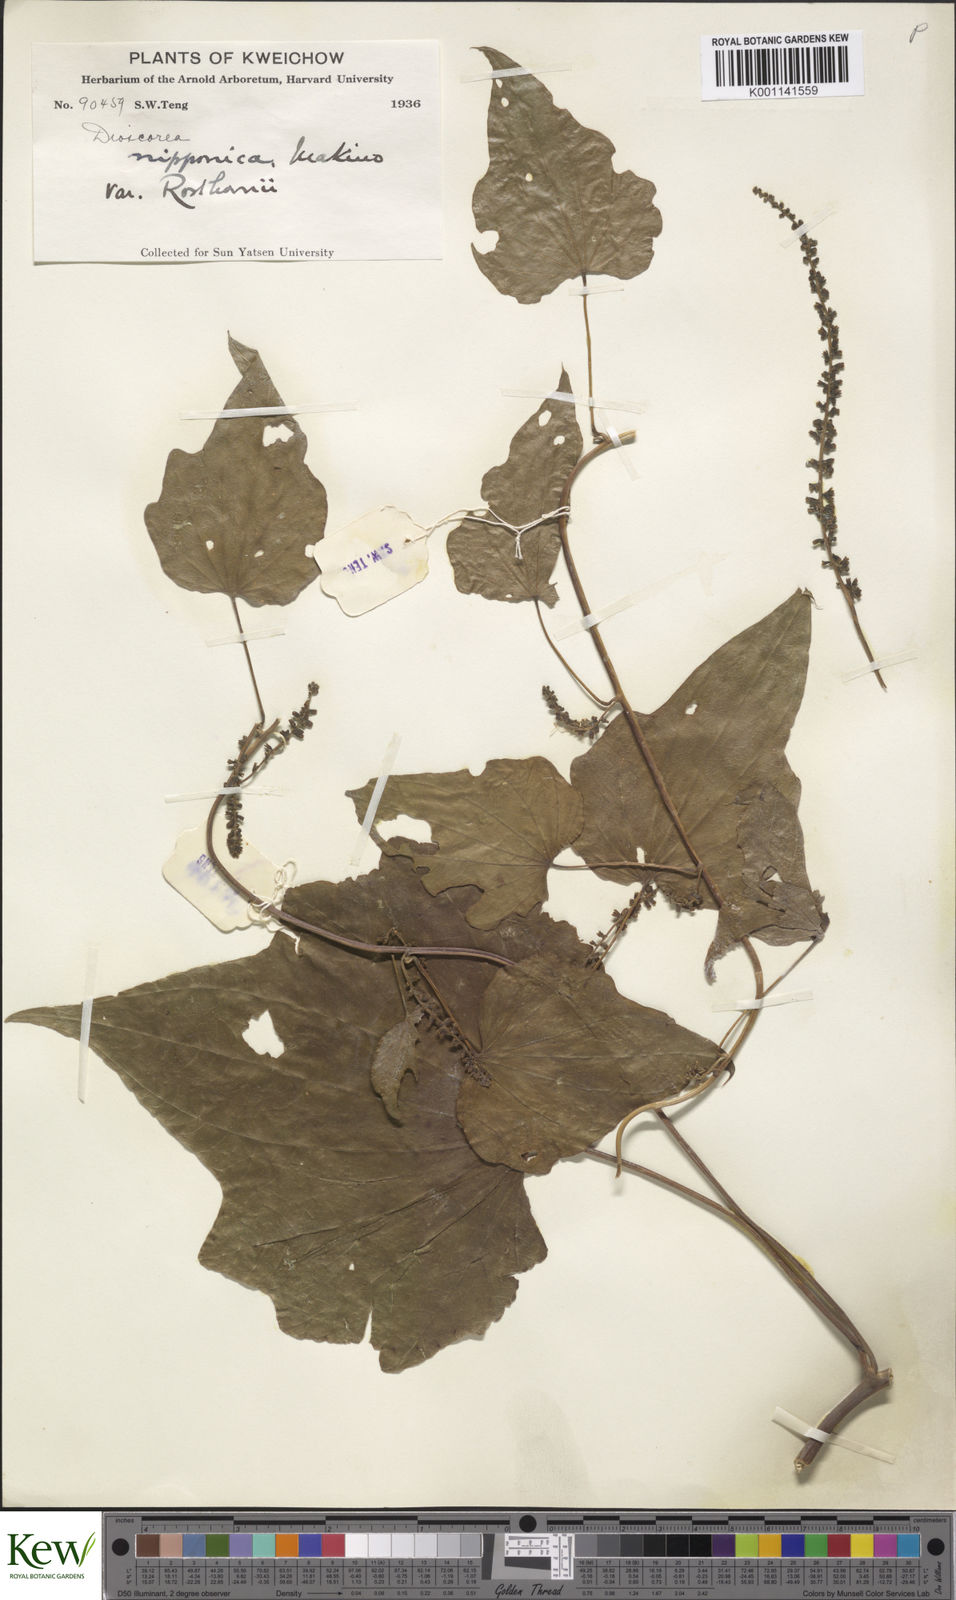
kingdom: Plantae
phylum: Tracheophyta
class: Liliopsida
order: Dioscoreales
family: Dioscoreaceae
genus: Dioscorea
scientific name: Dioscorea nipponica
